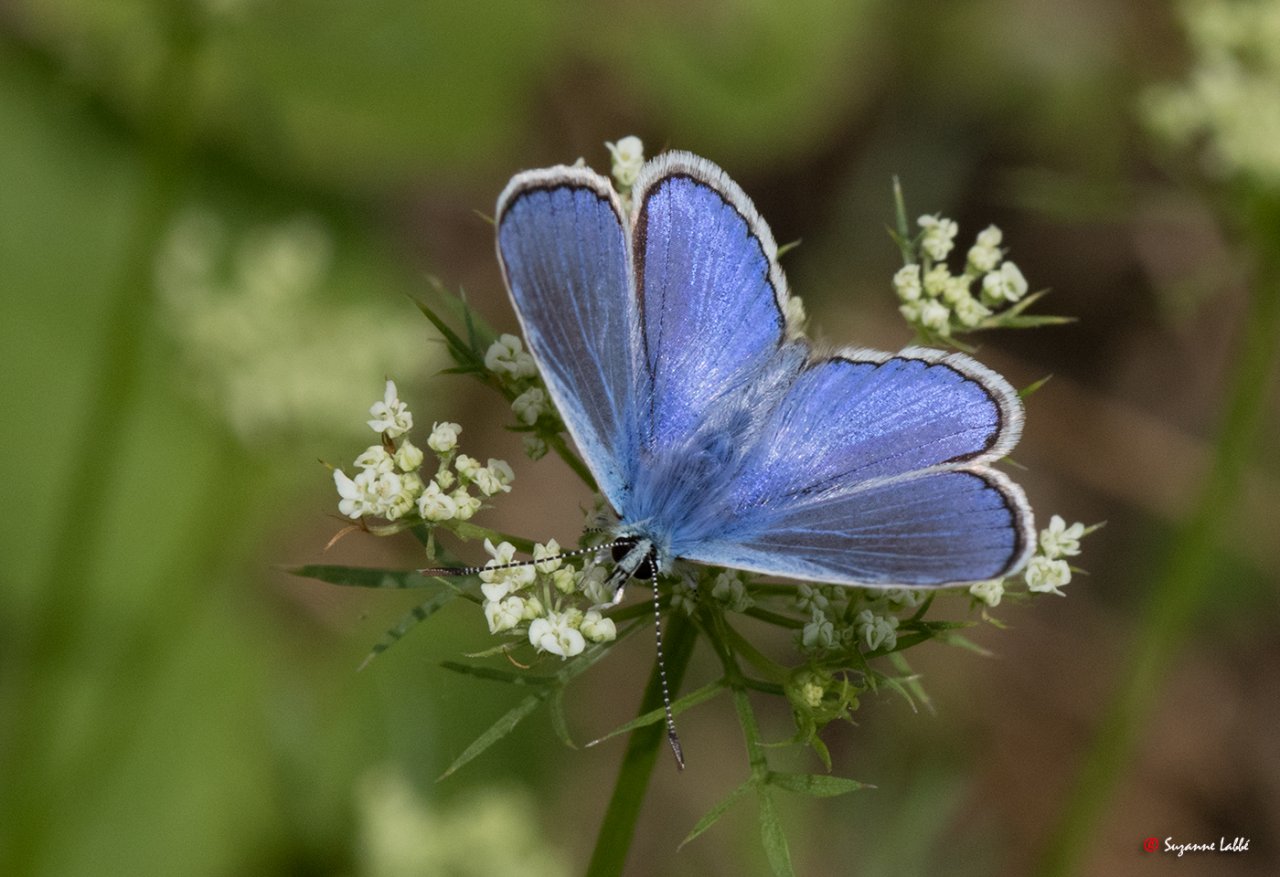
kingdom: Animalia
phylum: Arthropoda
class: Insecta
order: Lepidoptera
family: Lycaenidae
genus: Polyommatus
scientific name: Polyommatus icarus
